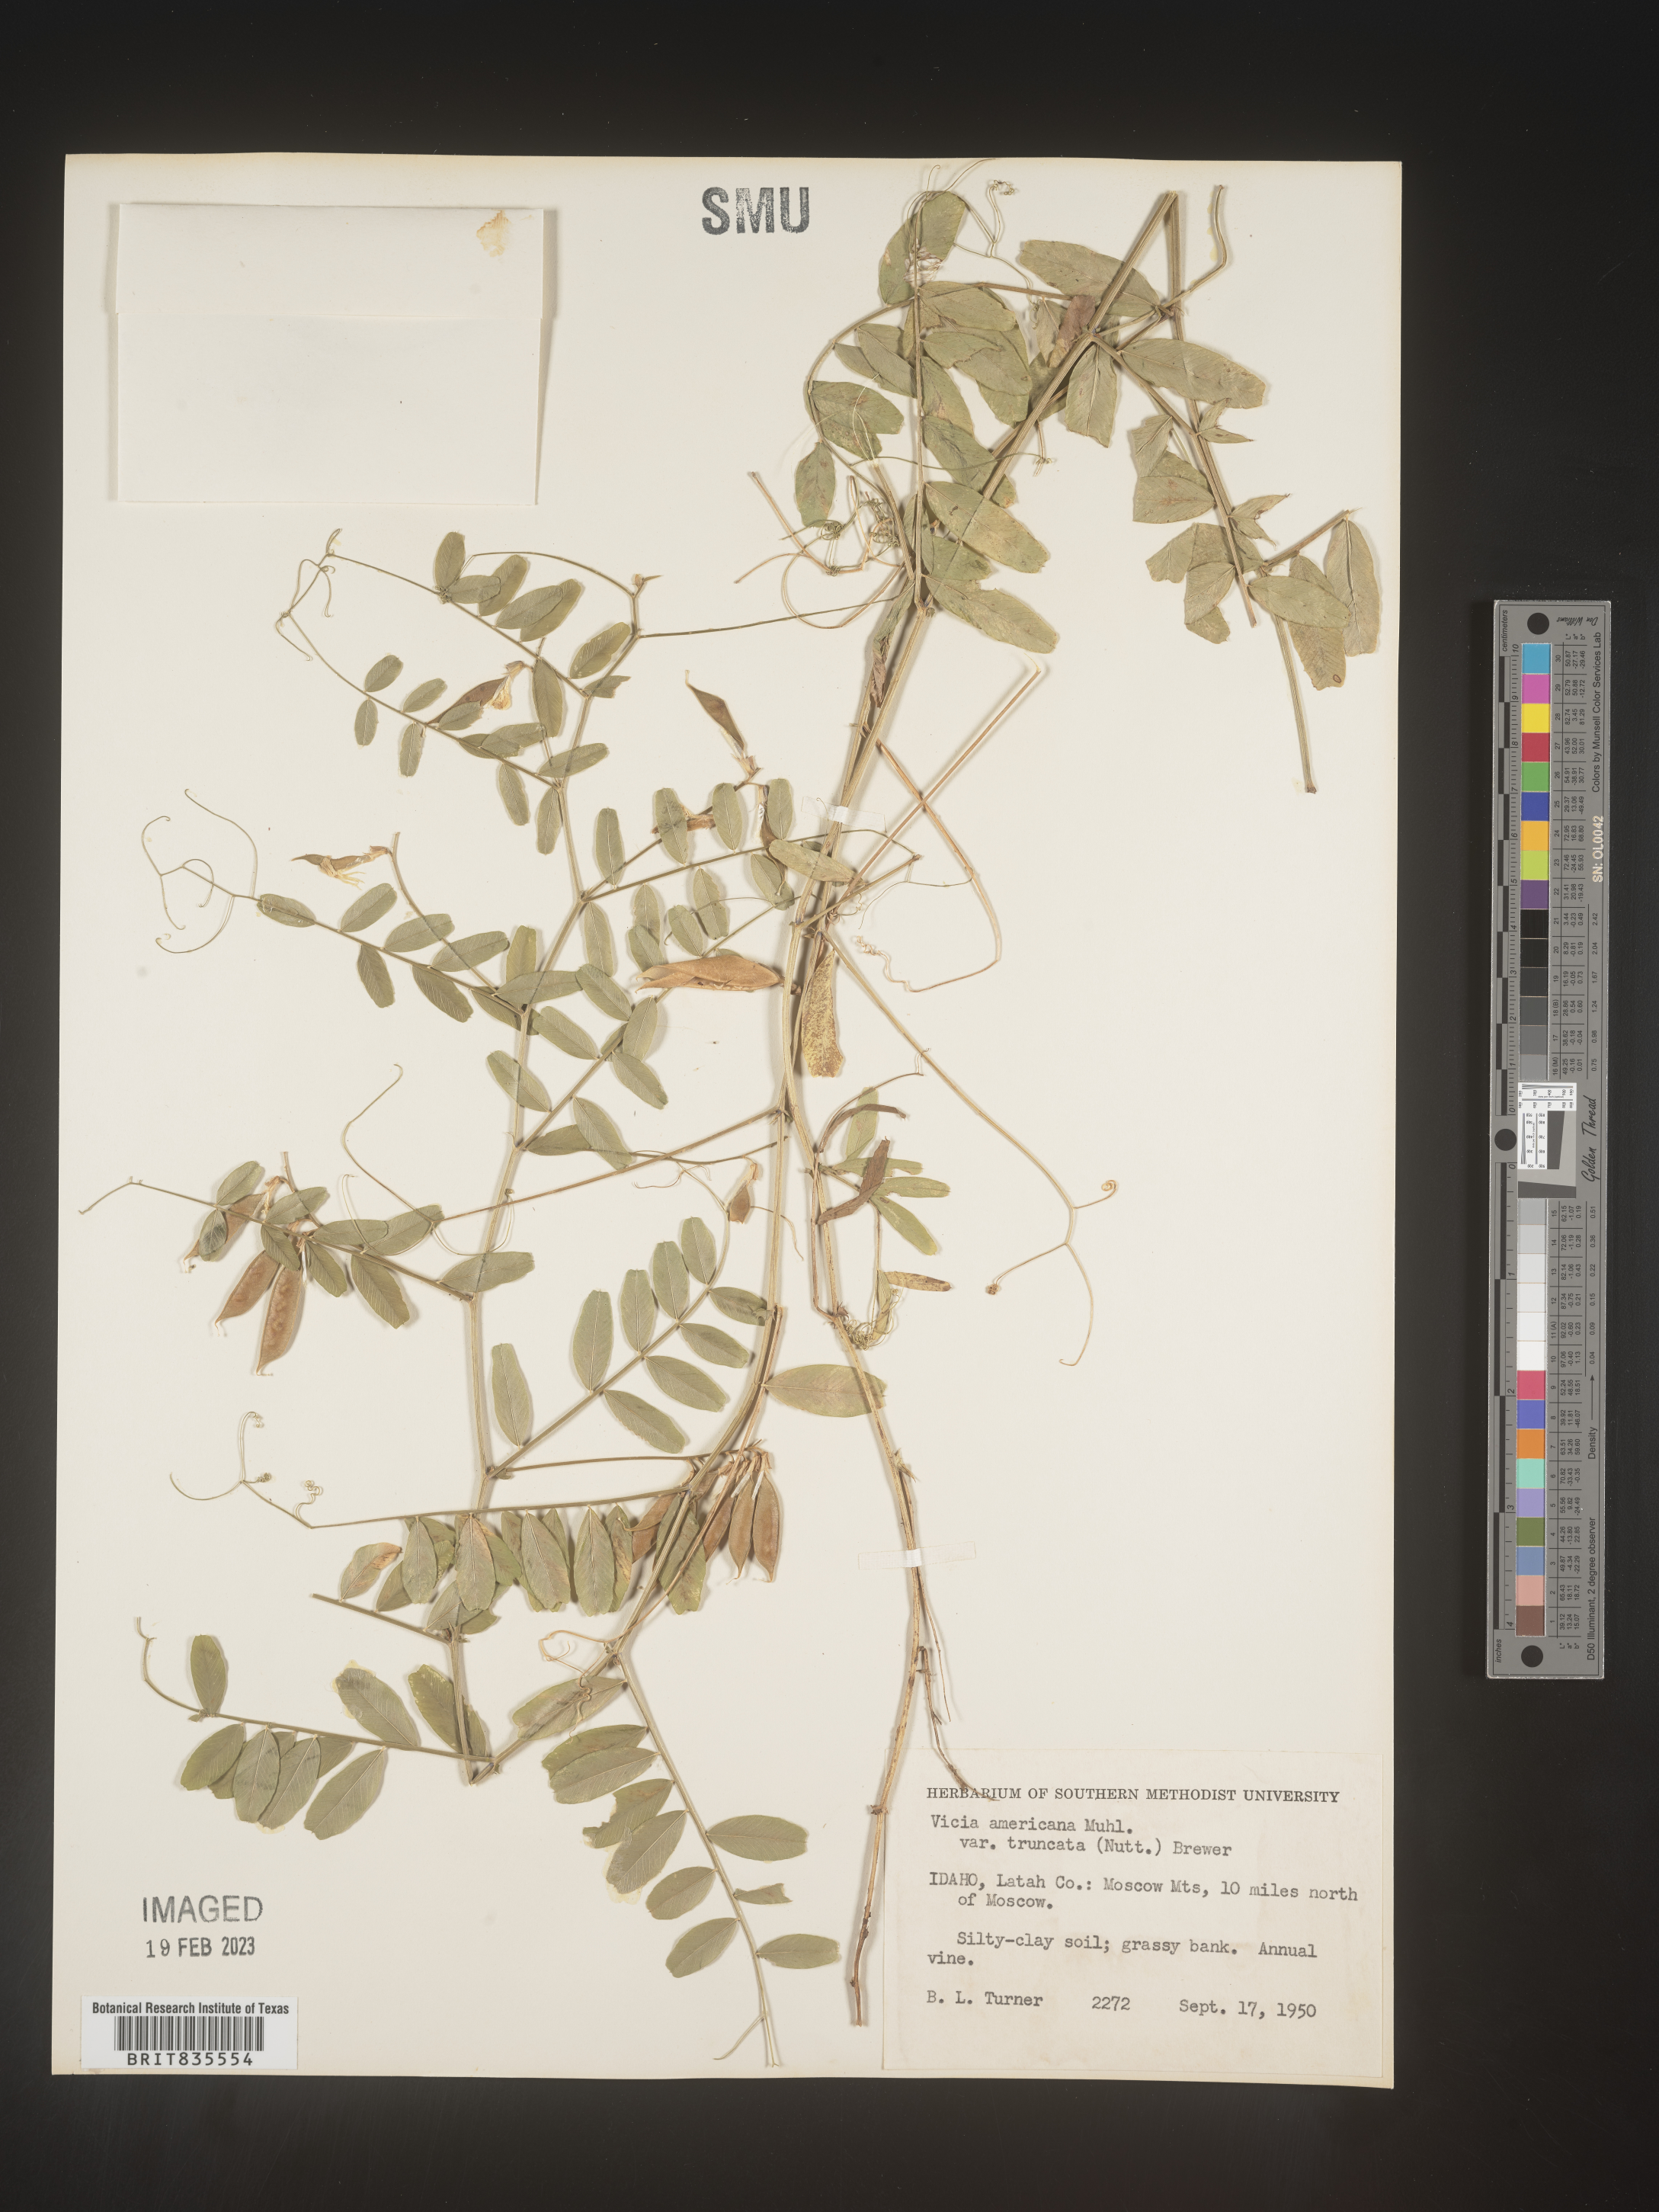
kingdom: Plantae
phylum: Tracheophyta
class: Magnoliopsida
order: Fabales
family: Fabaceae
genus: Vicia
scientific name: Vicia americana
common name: American vetch
